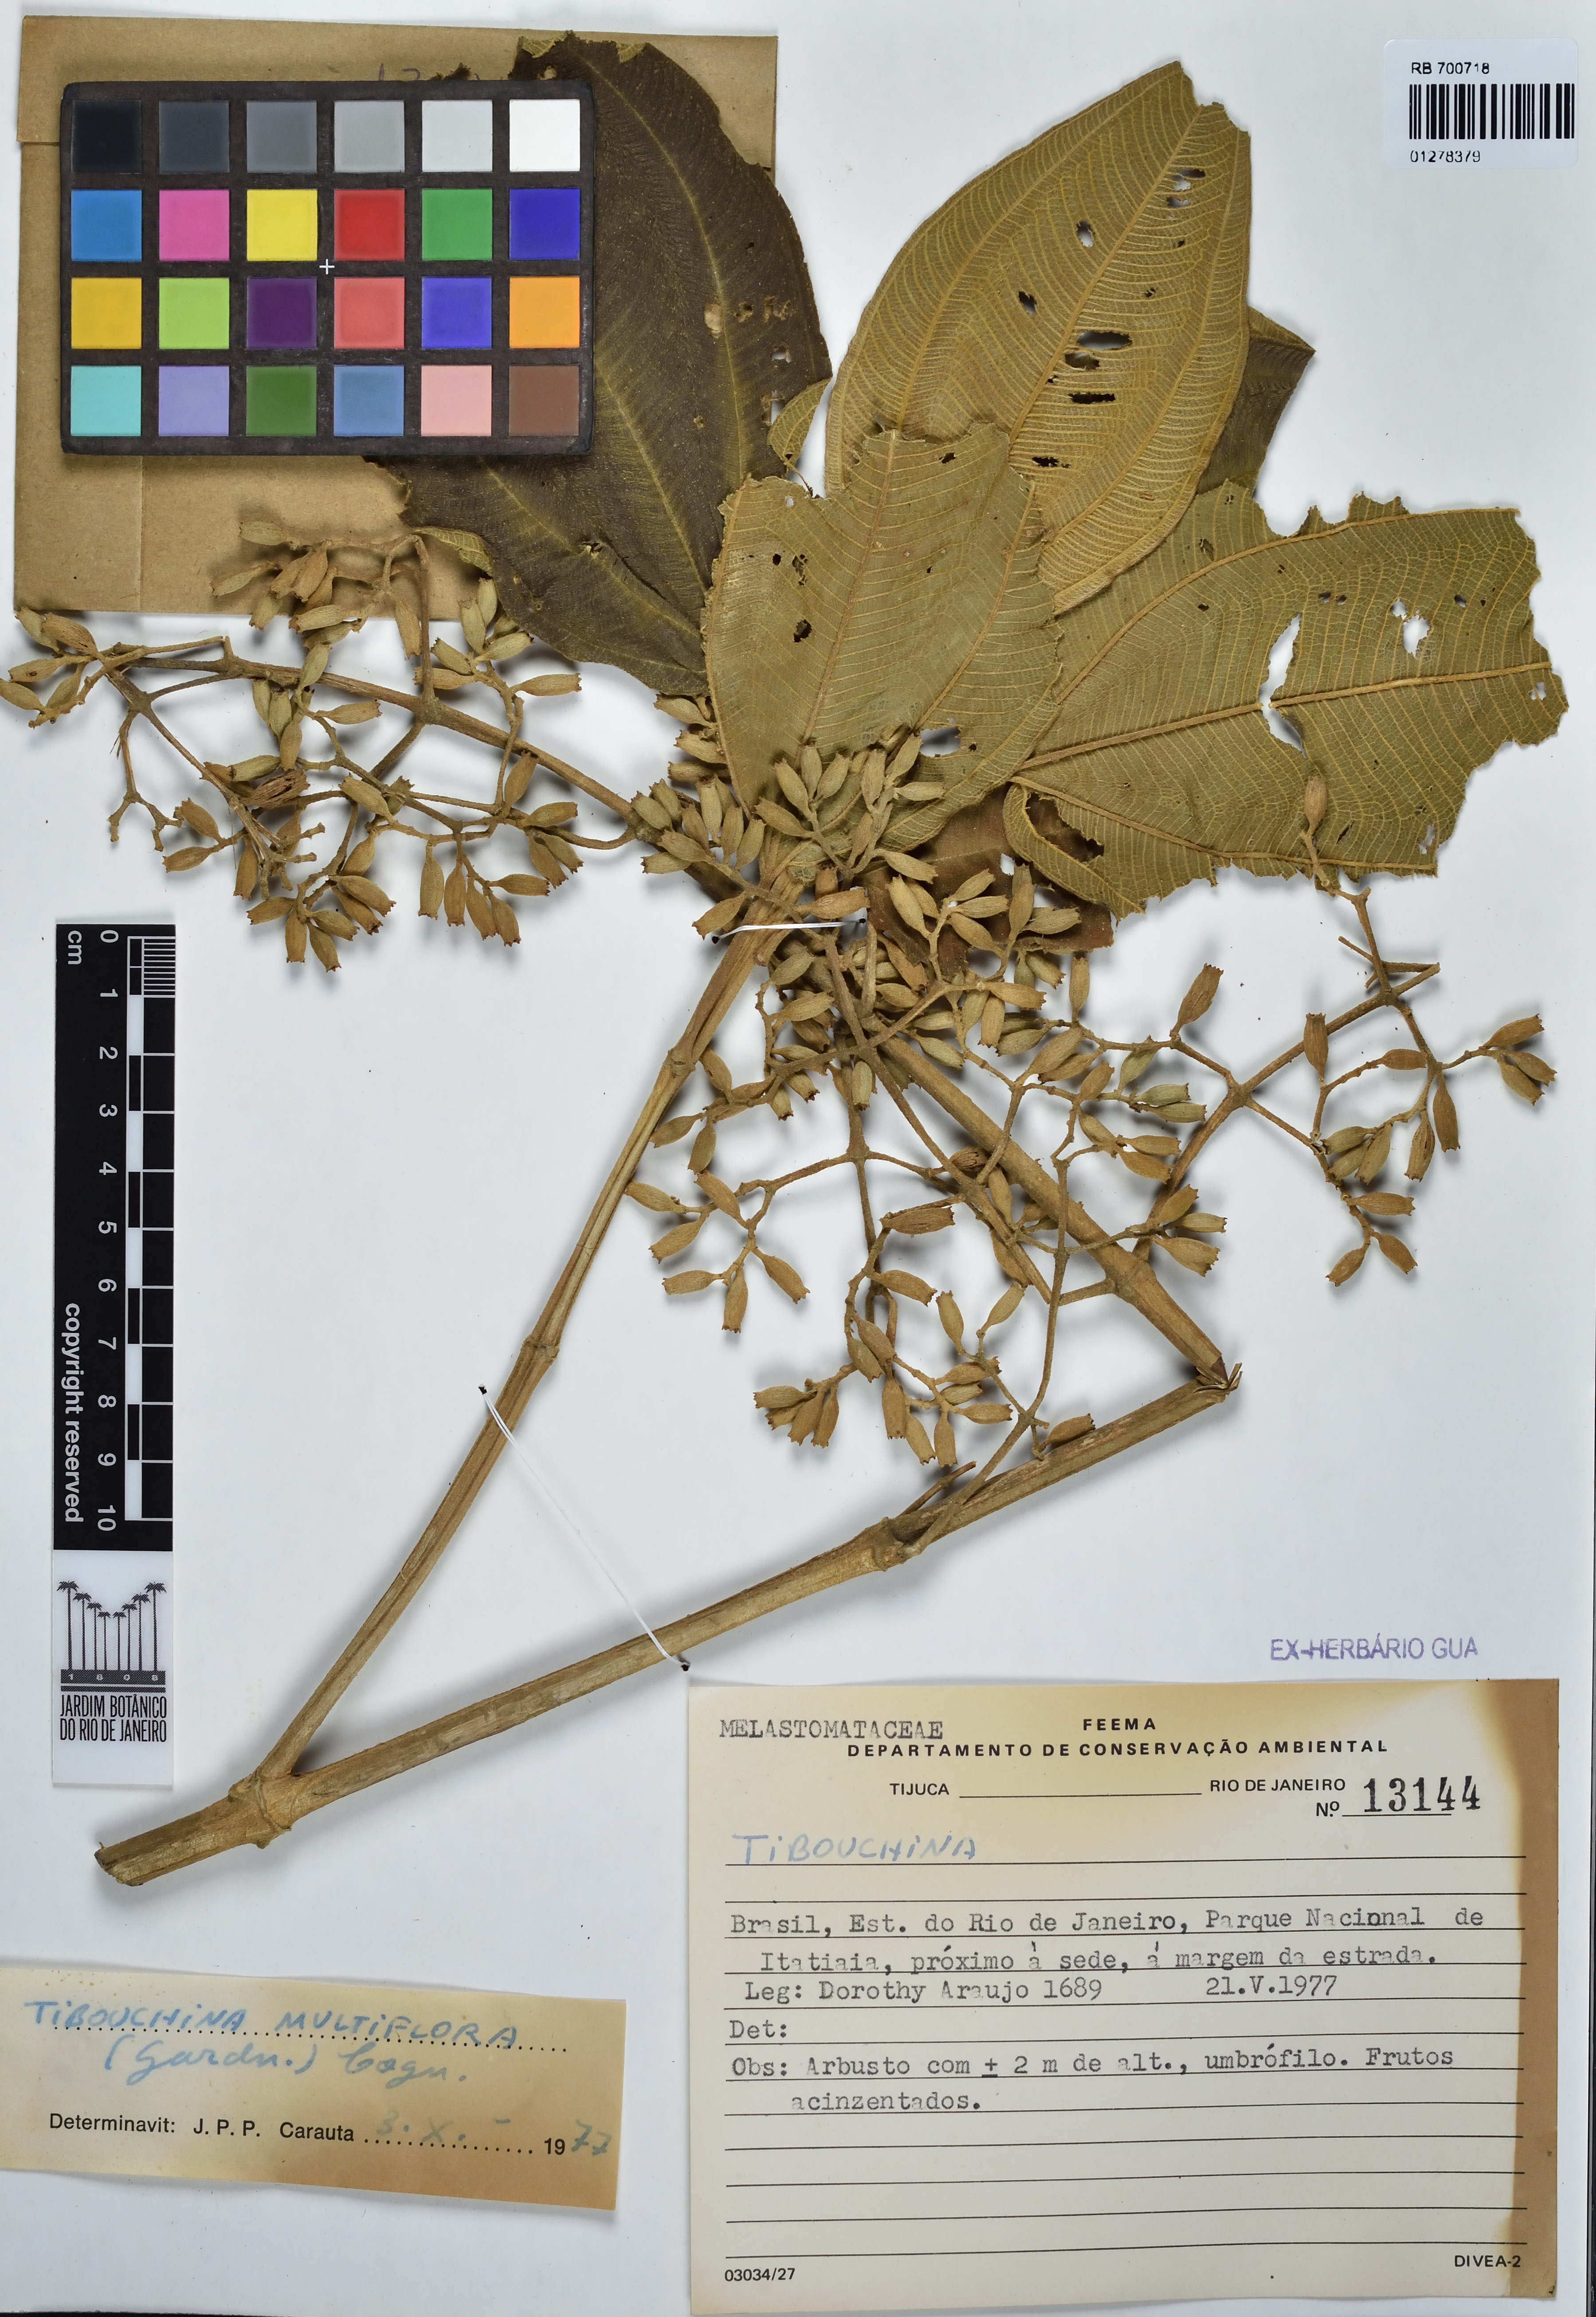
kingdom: Plantae
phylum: Tracheophyta
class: Magnoliopsida
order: Myrtales
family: Melastomataceae
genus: Pleroma
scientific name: Pleroma heteromallum
